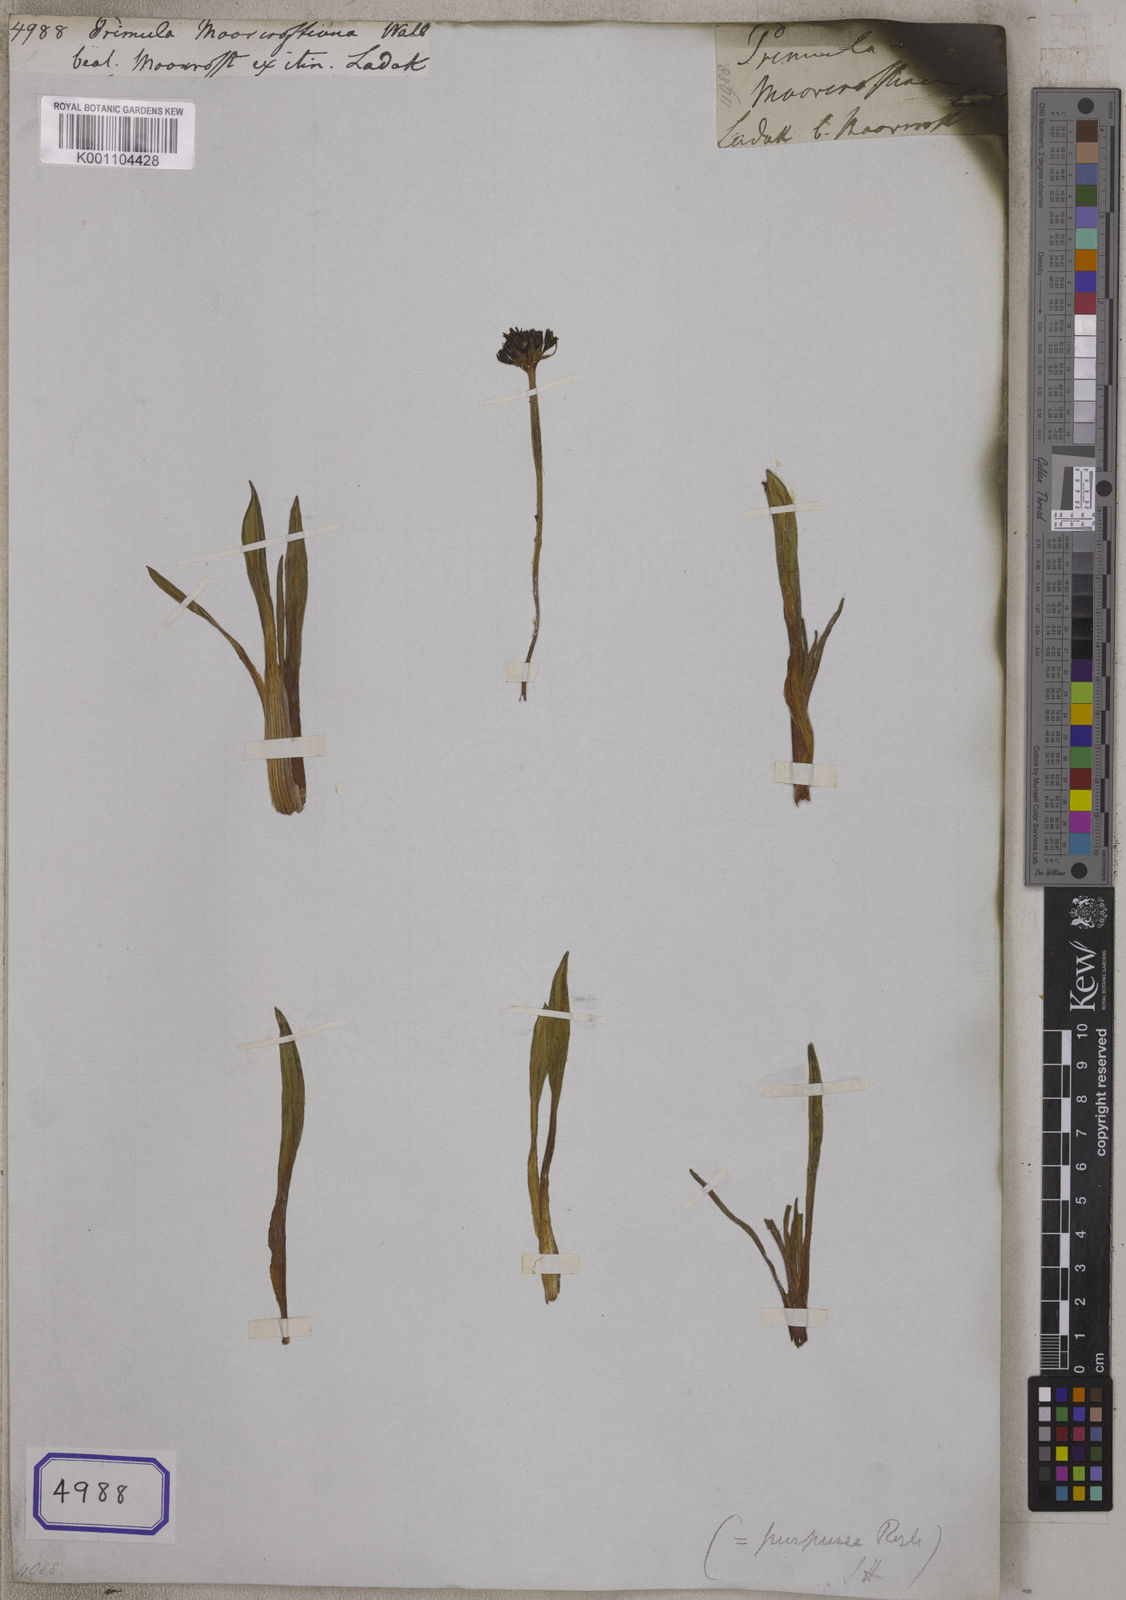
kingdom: Plantae
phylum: Tracheophyta
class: Magnoliopsida
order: Ericales
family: Primulaceae
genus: Primula
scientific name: Primula
